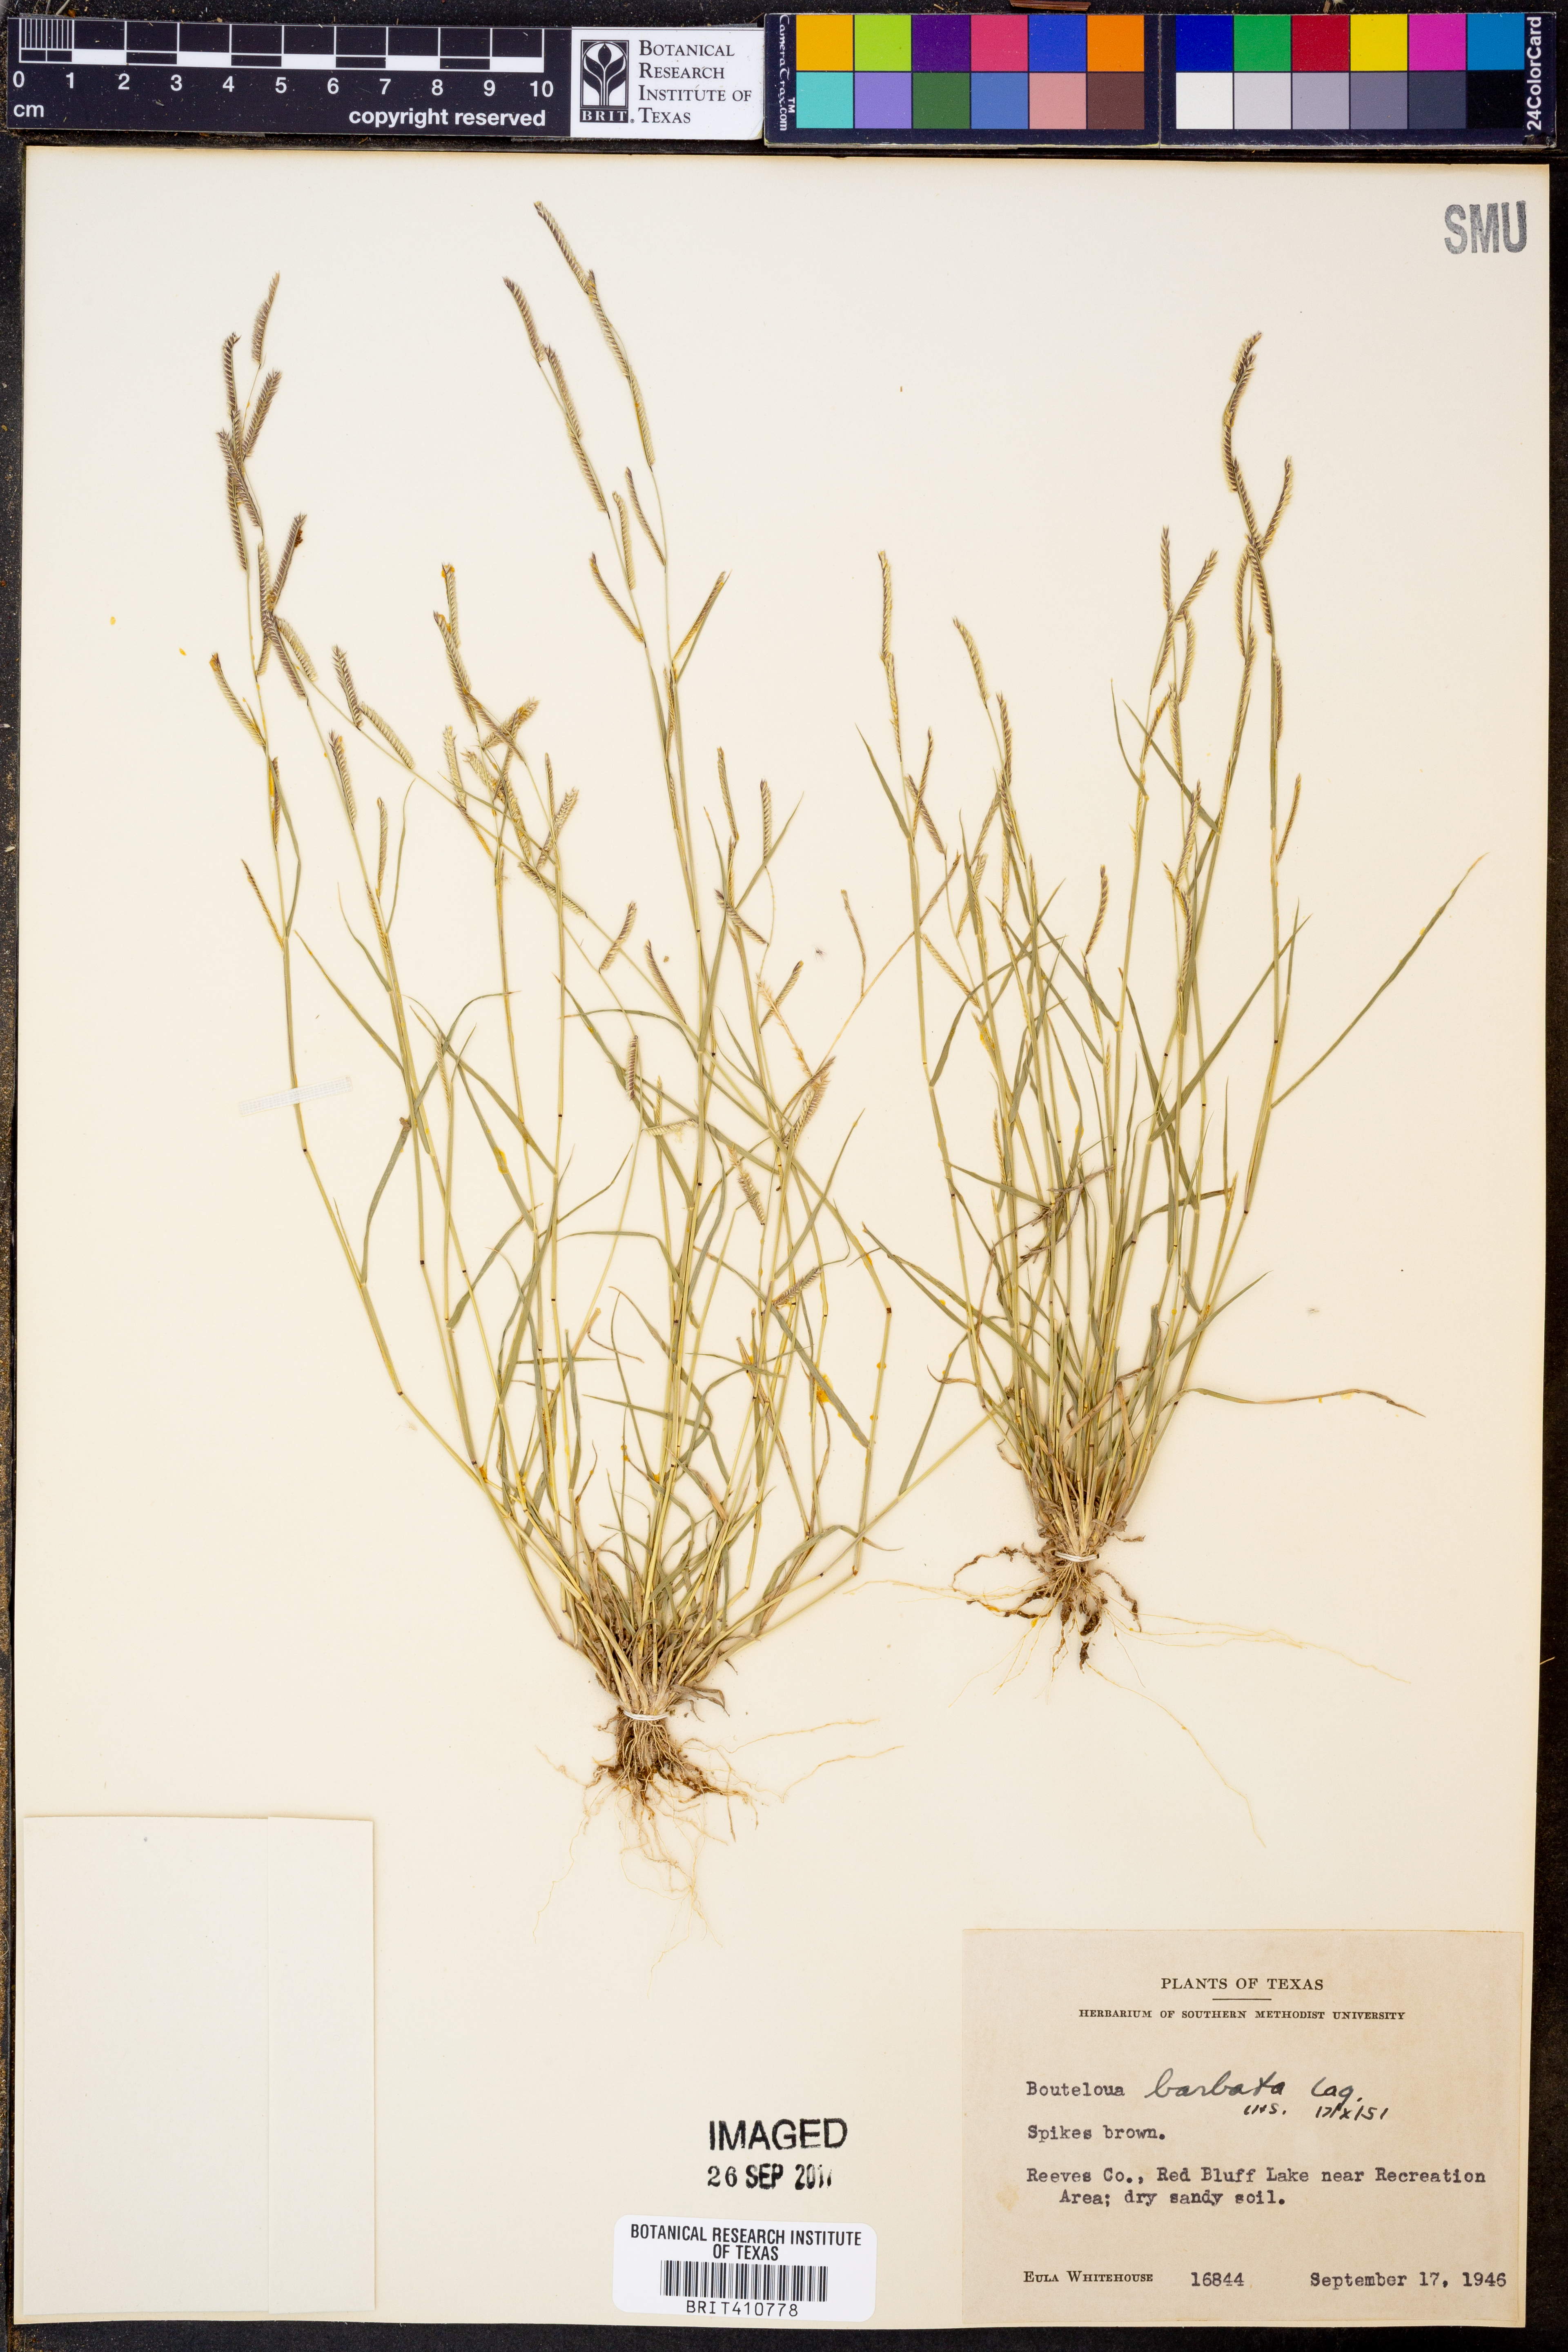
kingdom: Plantae
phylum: Tracheophyta
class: Liliopsida
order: Poales
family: Poaceae
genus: Bouteloua
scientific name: Bouteloua barbata
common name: Six-weeks grama
